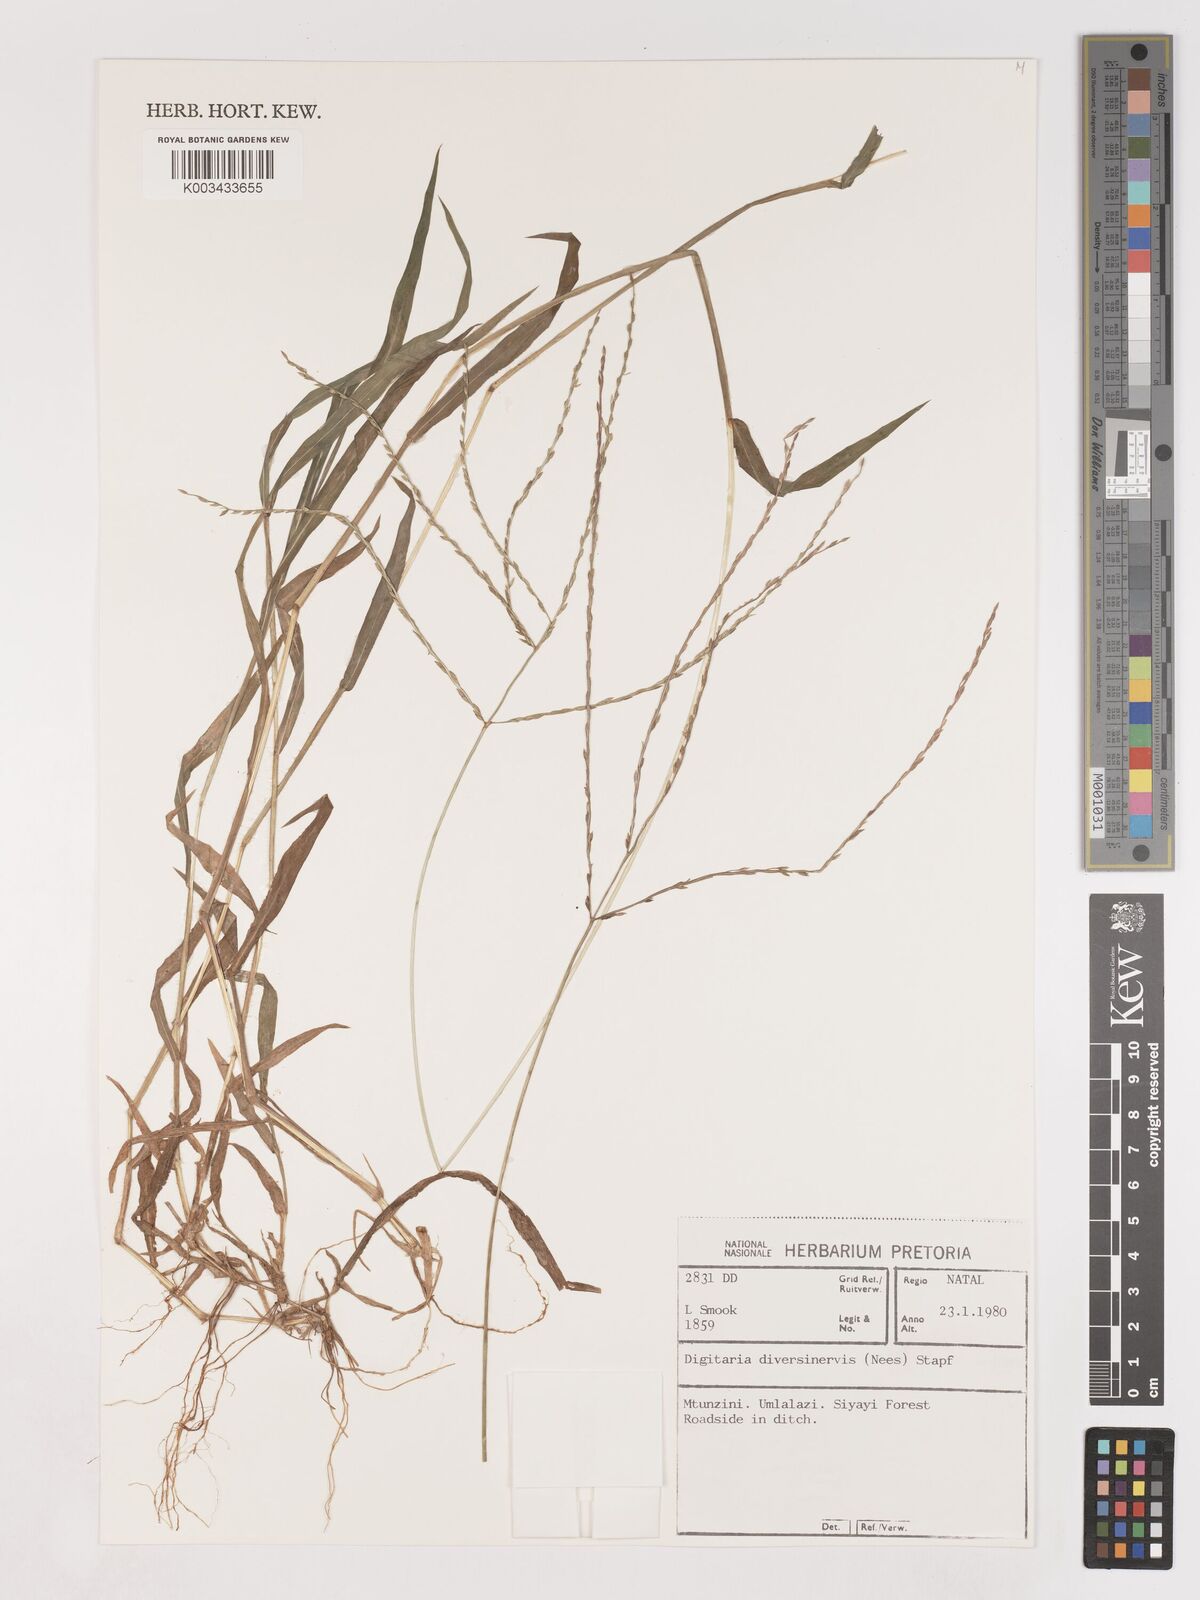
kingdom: Plantae
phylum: Tracheophyta
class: Liliopsida
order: Poales
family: Poaceae
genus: Digitaria
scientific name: Digitaria diversinervis
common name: Richmond finger grass
